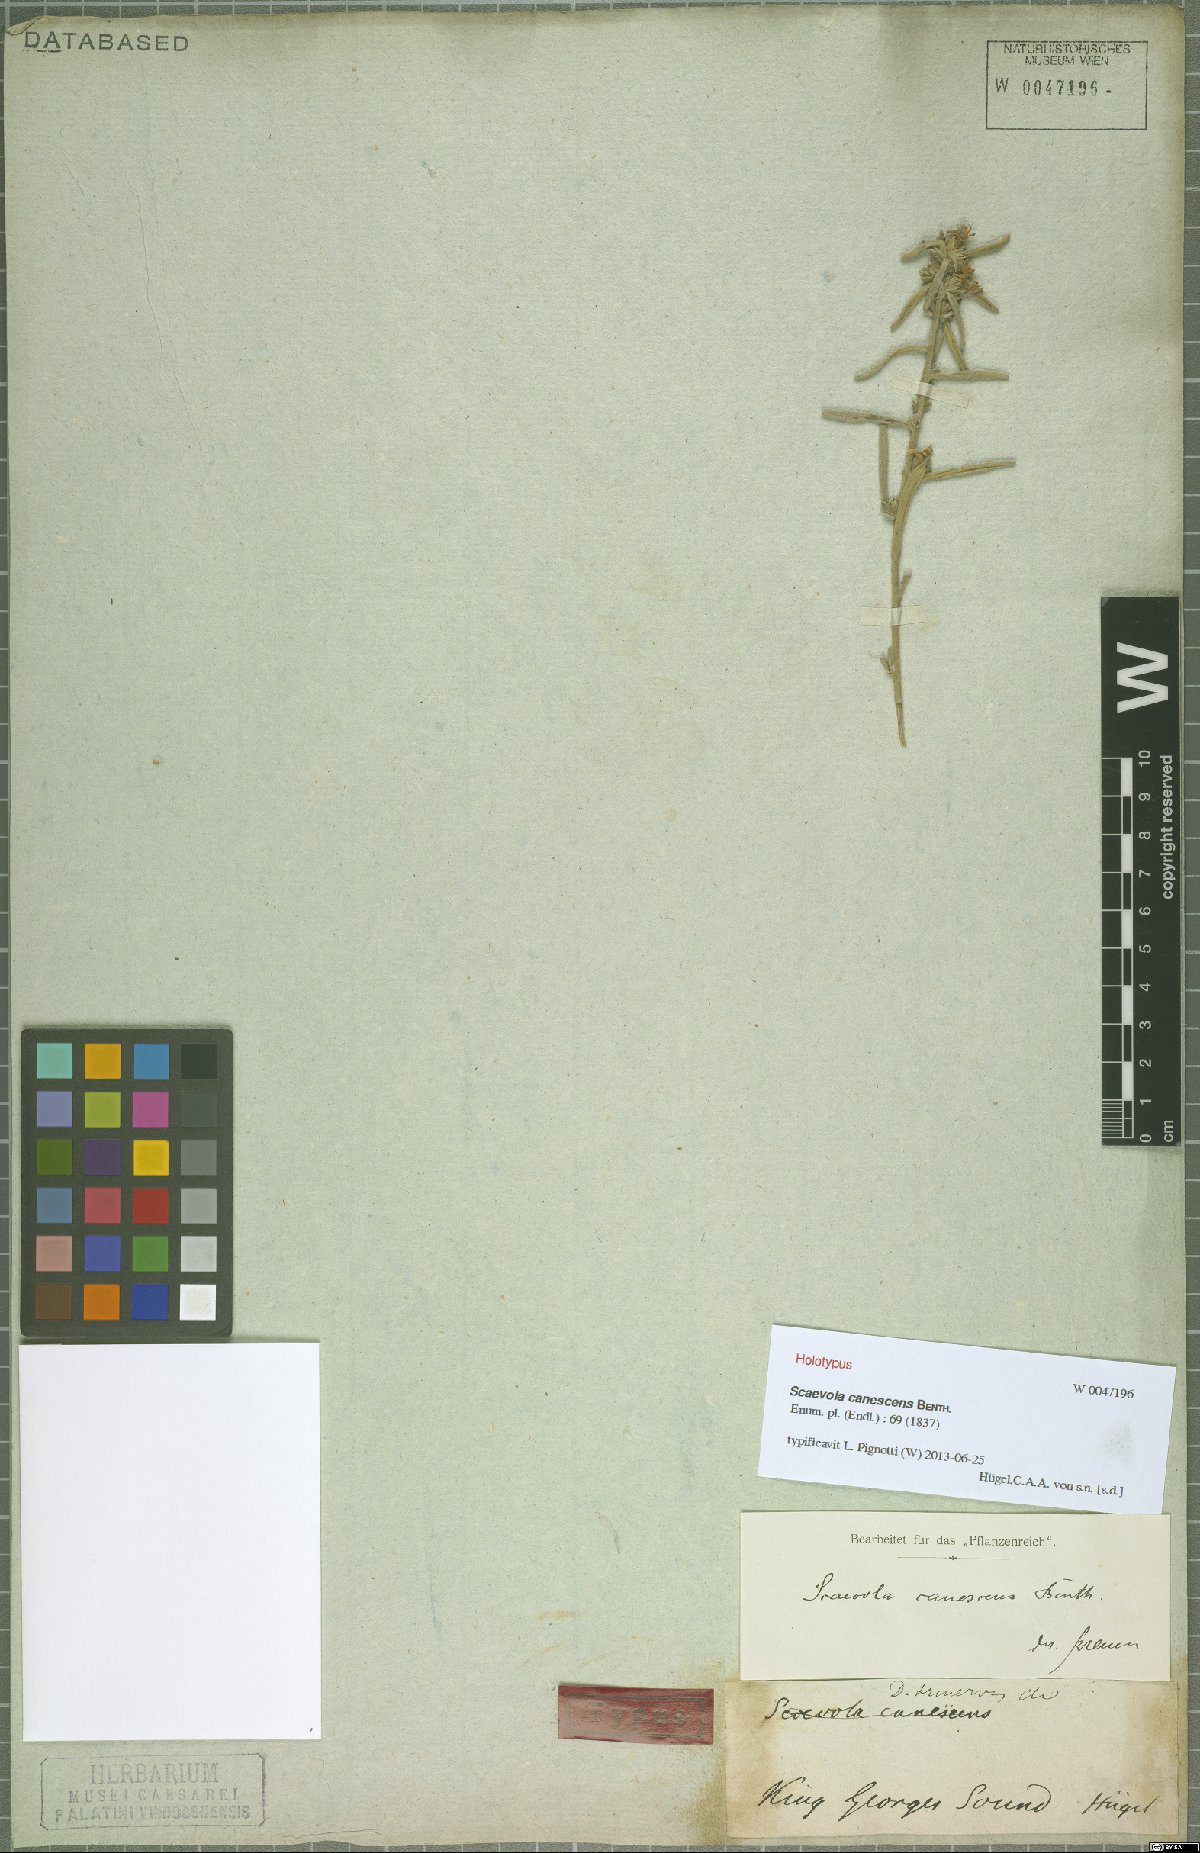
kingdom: Plantae
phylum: Tracheophyta
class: Magnoliopsida
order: Asterales
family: Goodeniaceae
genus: Scaevola
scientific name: Scaevola canescens
